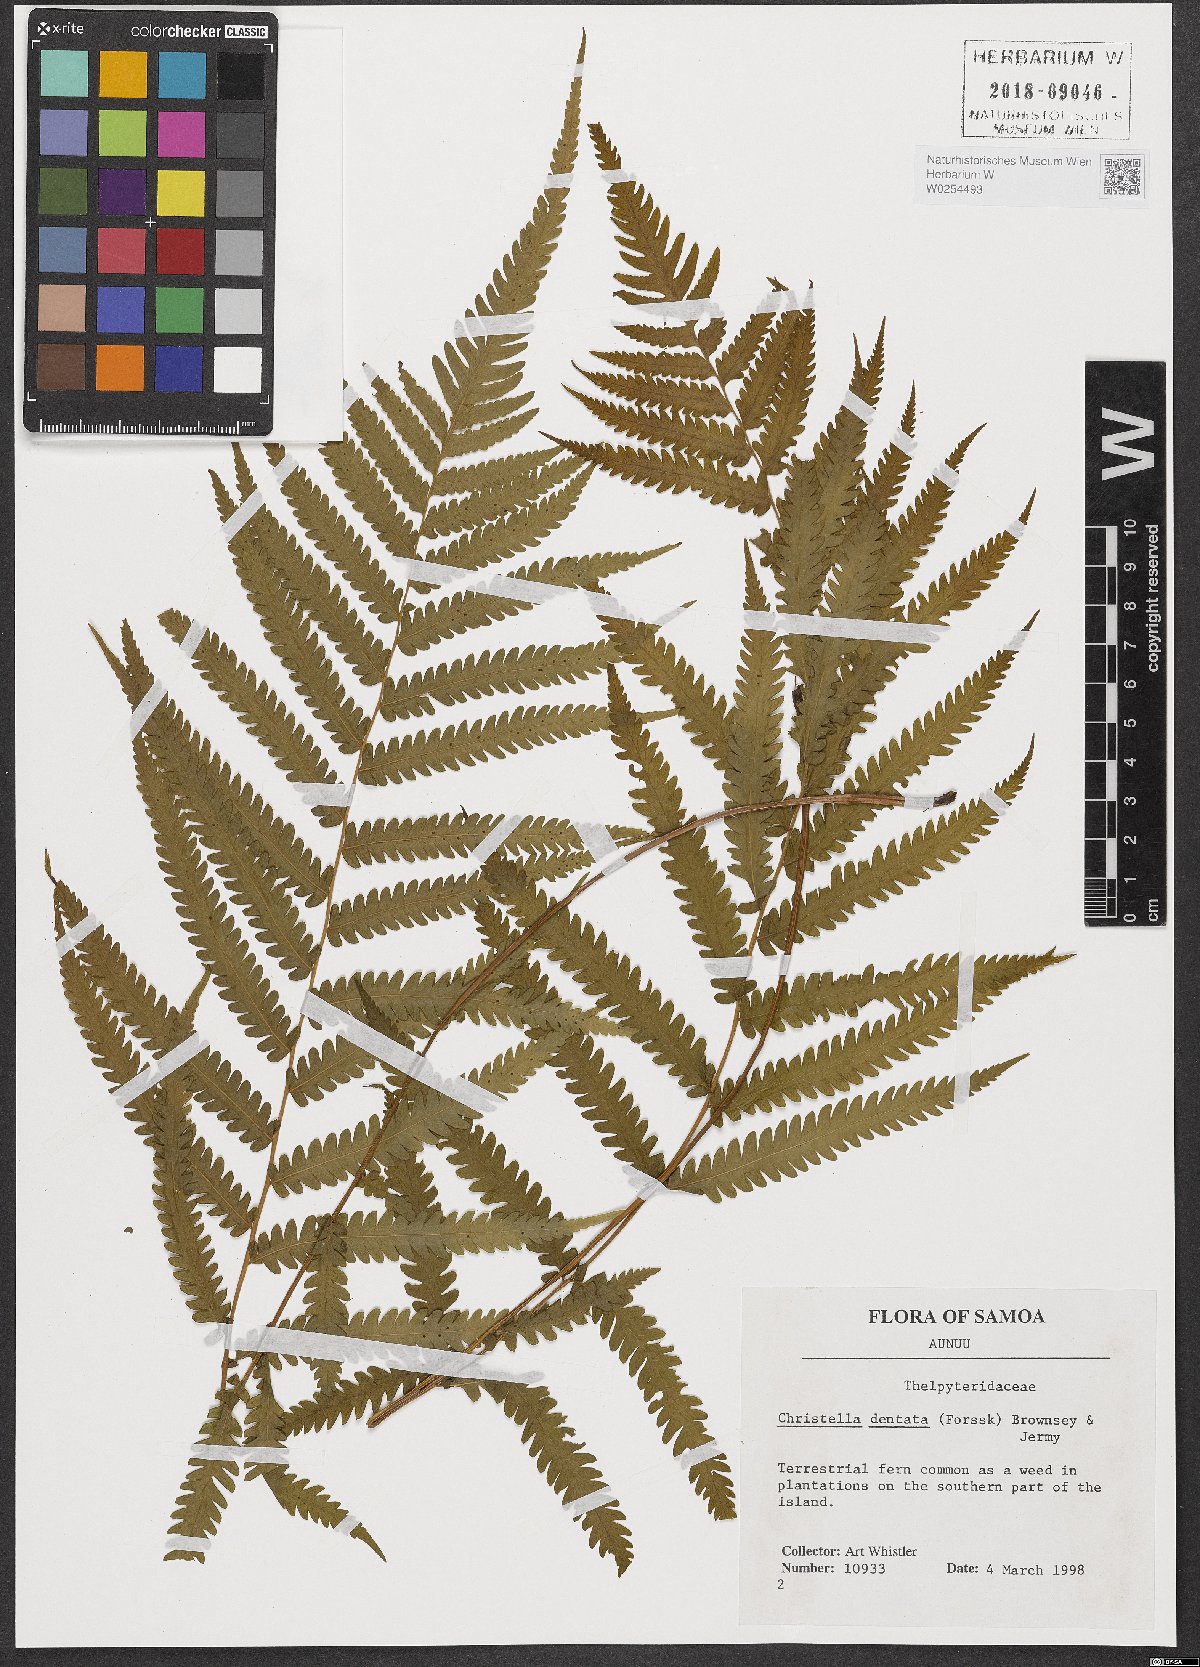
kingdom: Plantae
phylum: Tracheophyta
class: Polypodiopsida
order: Polypodiales
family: Thelypteridaceae
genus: Christella
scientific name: Christella dentata
